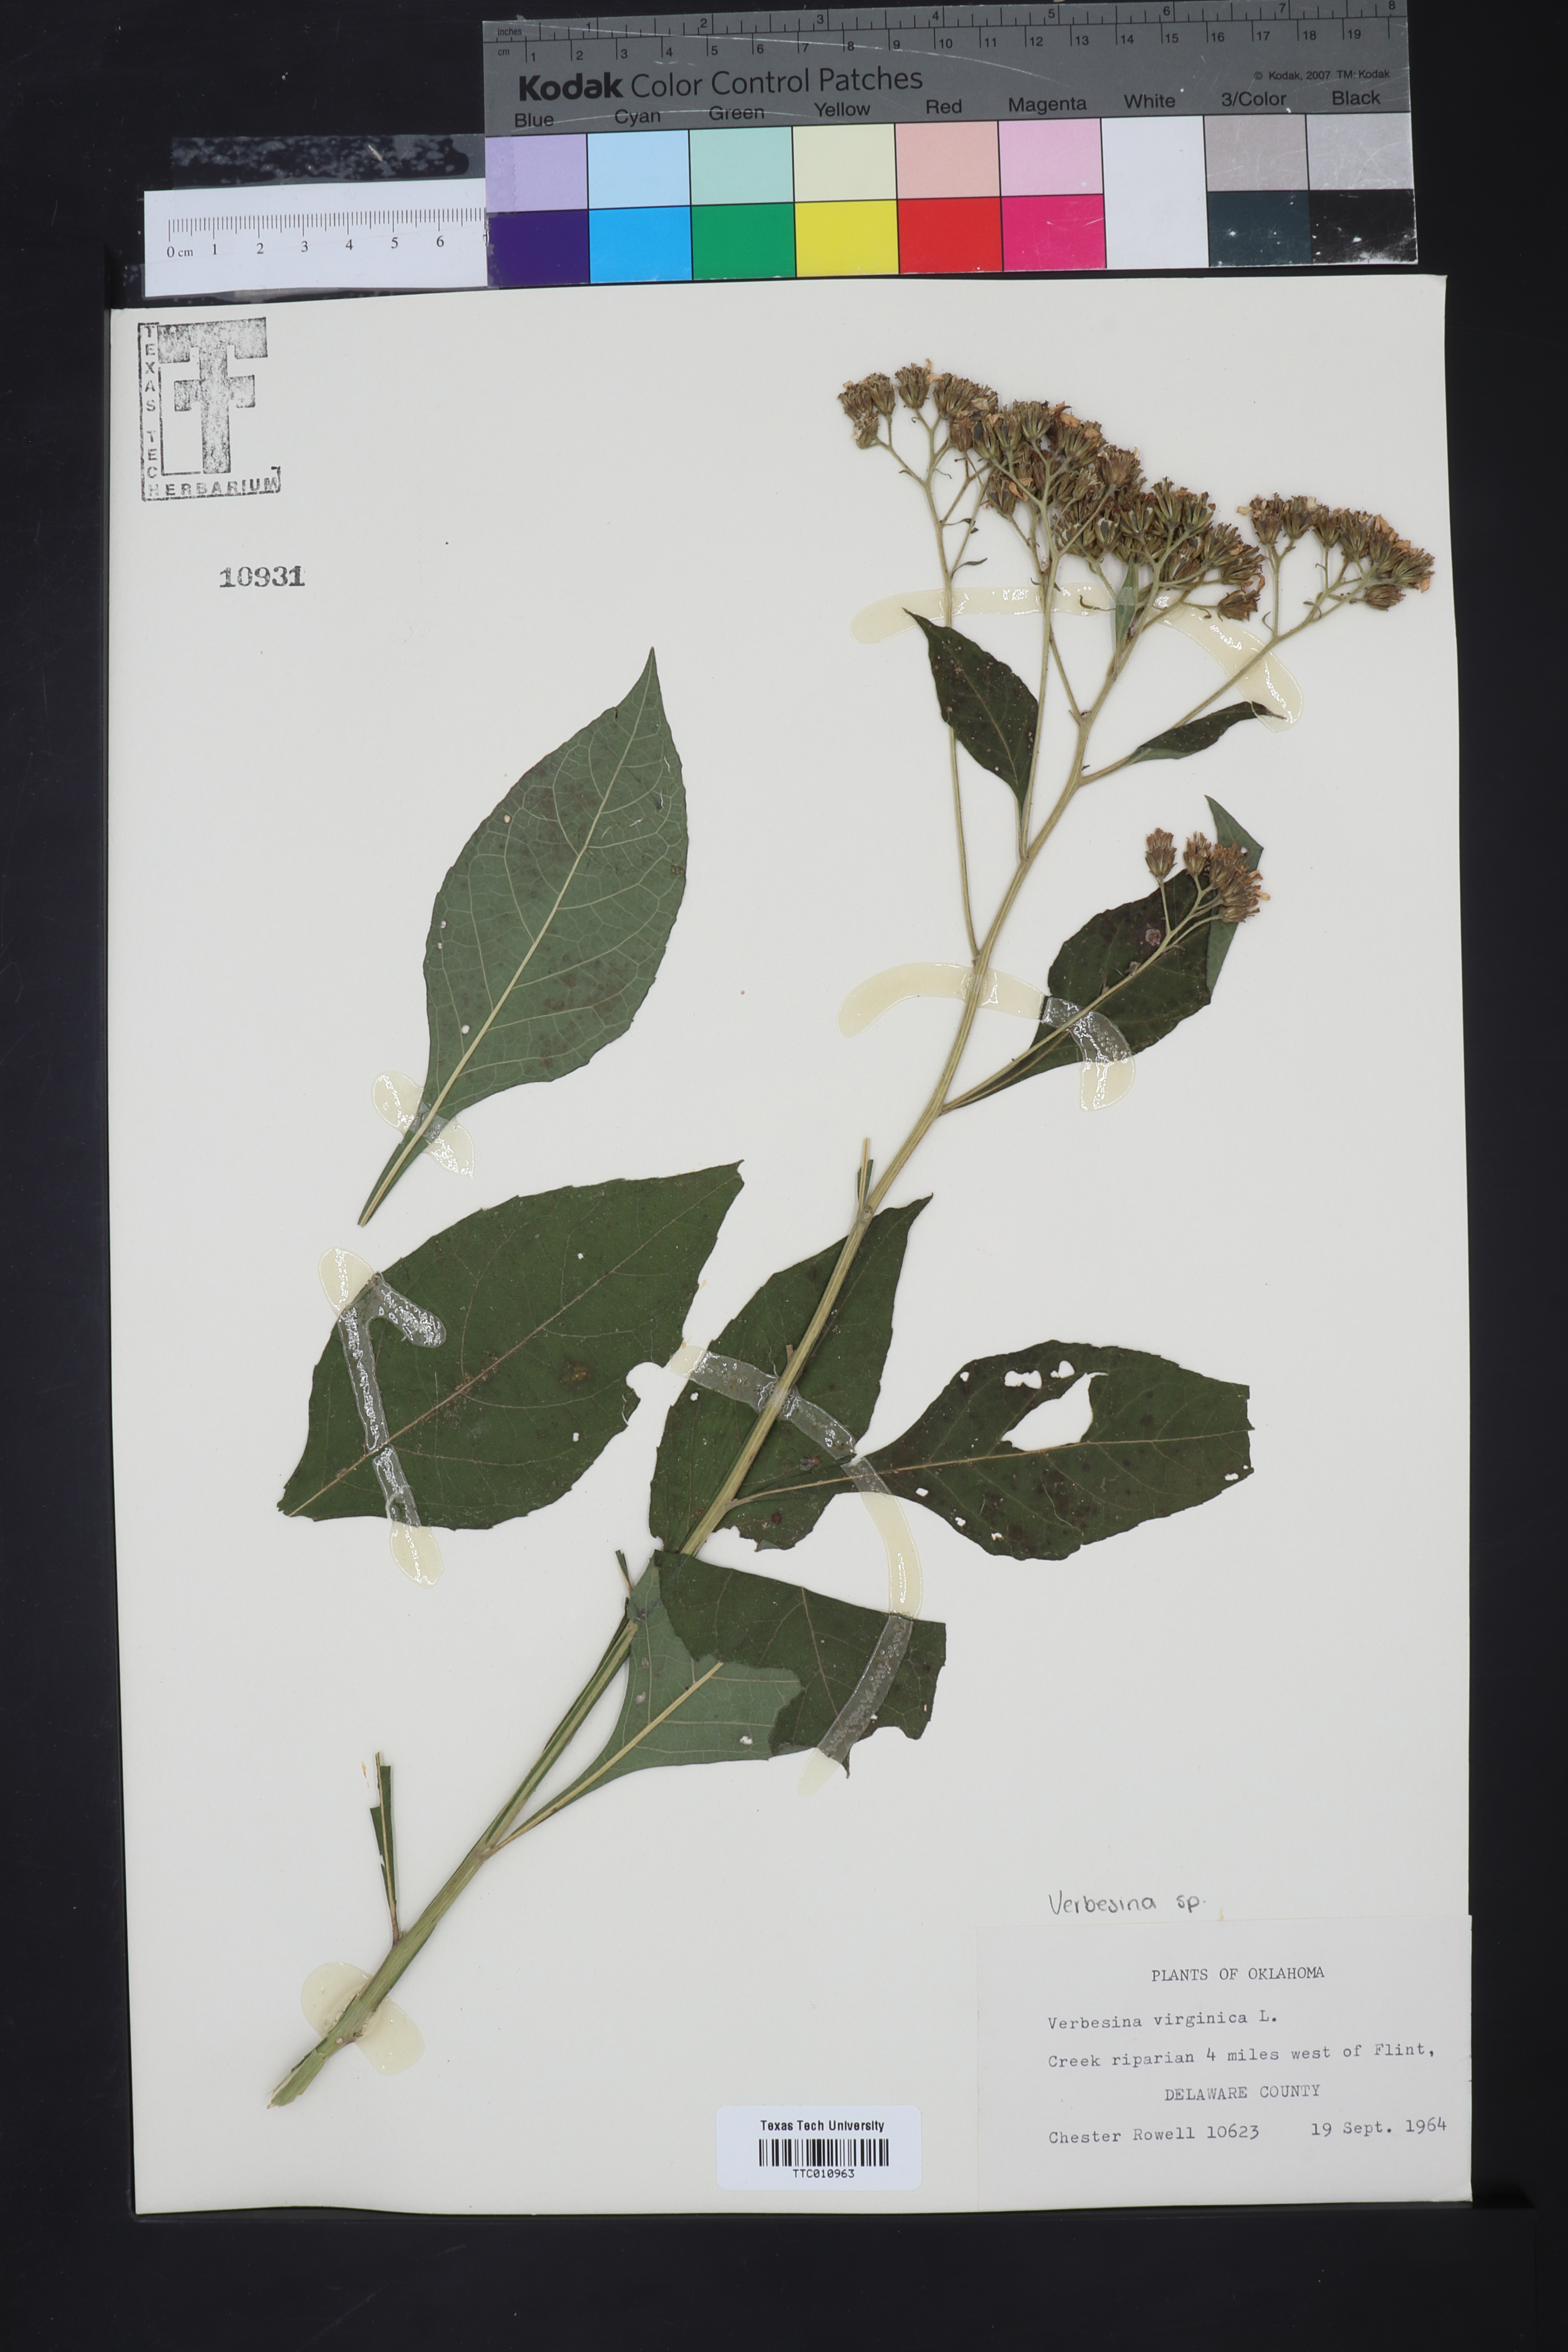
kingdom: Plantae
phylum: Tracheophyta
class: Magnoliopsida
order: Asterales
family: Asteraceae
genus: Verbesina
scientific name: Verbesina virginica
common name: Frostweed
